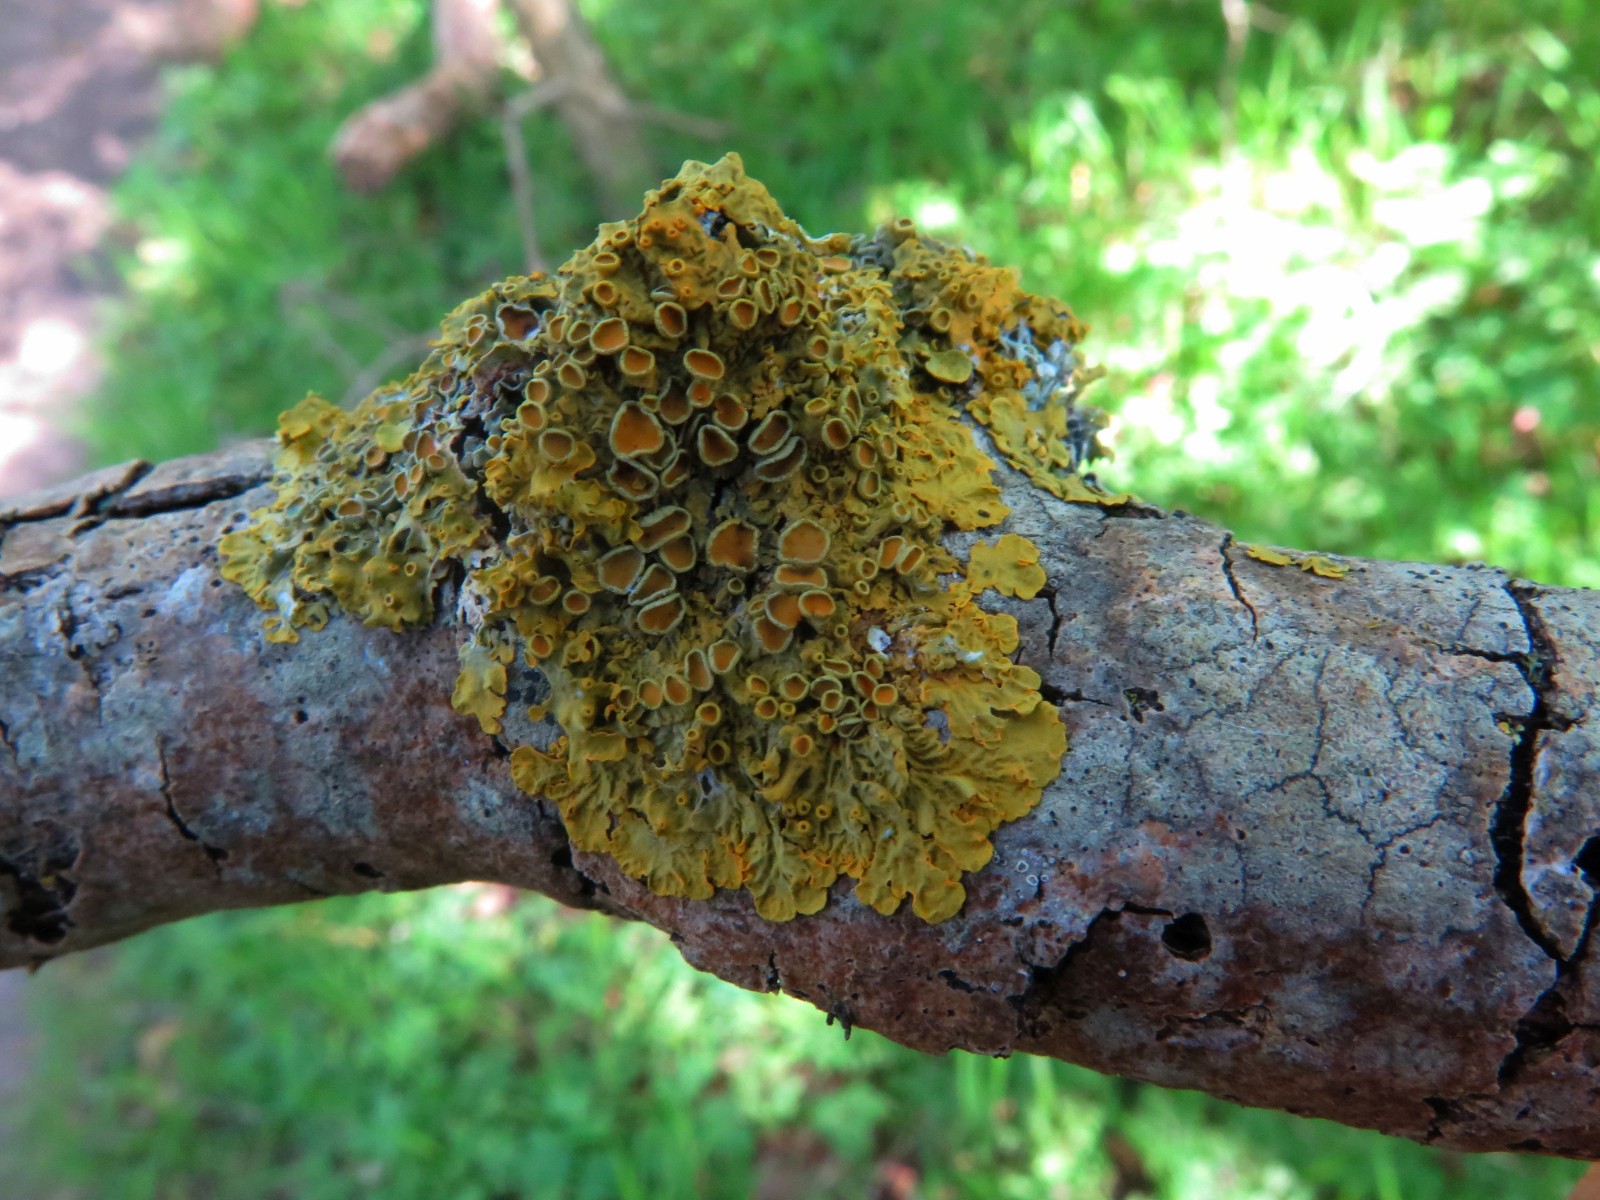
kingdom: Fungi
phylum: Ascomycota
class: Lecanoromycetes
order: Teloschistales
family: Teloschistaceae
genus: Xanthoria
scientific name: Xanthoria parietina
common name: almindelig væggelav
